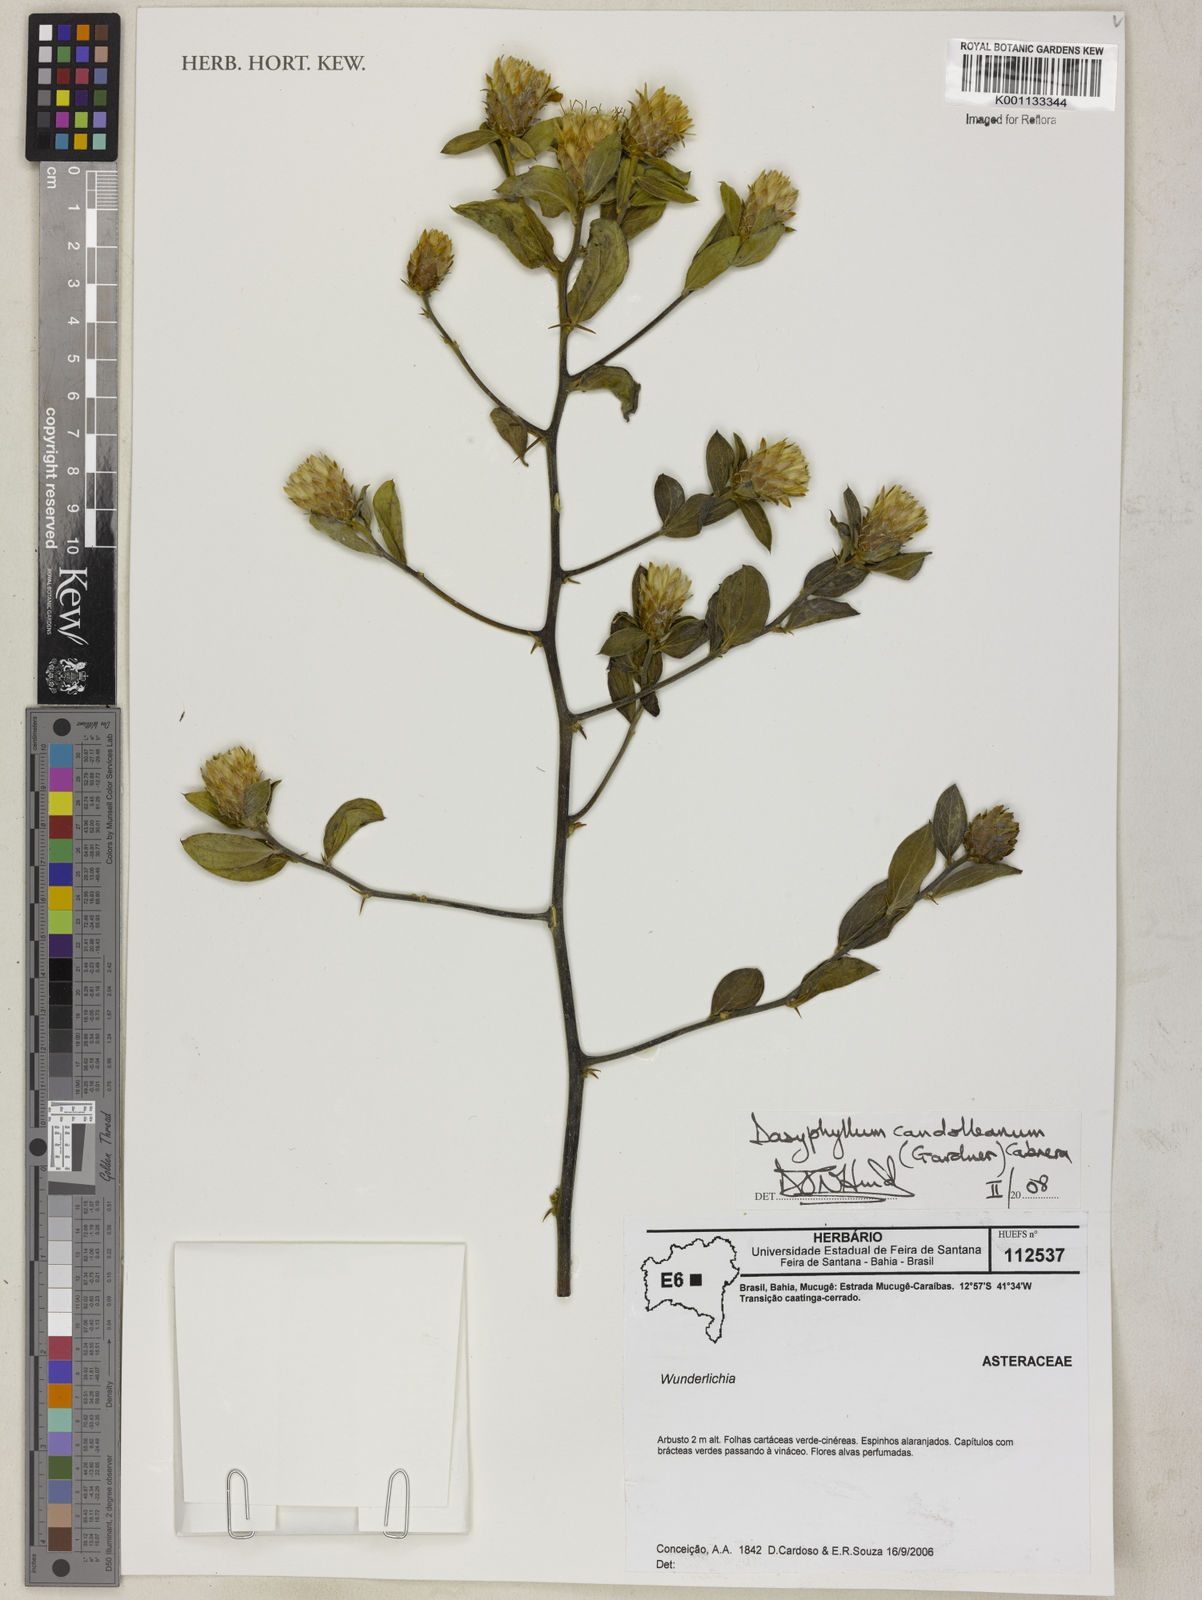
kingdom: Plantae
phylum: Tracheophyta
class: Magnoliopsida
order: Asterales
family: Asteraceae
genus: Dasyphyllum
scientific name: Dasyphyllum candolleanum
